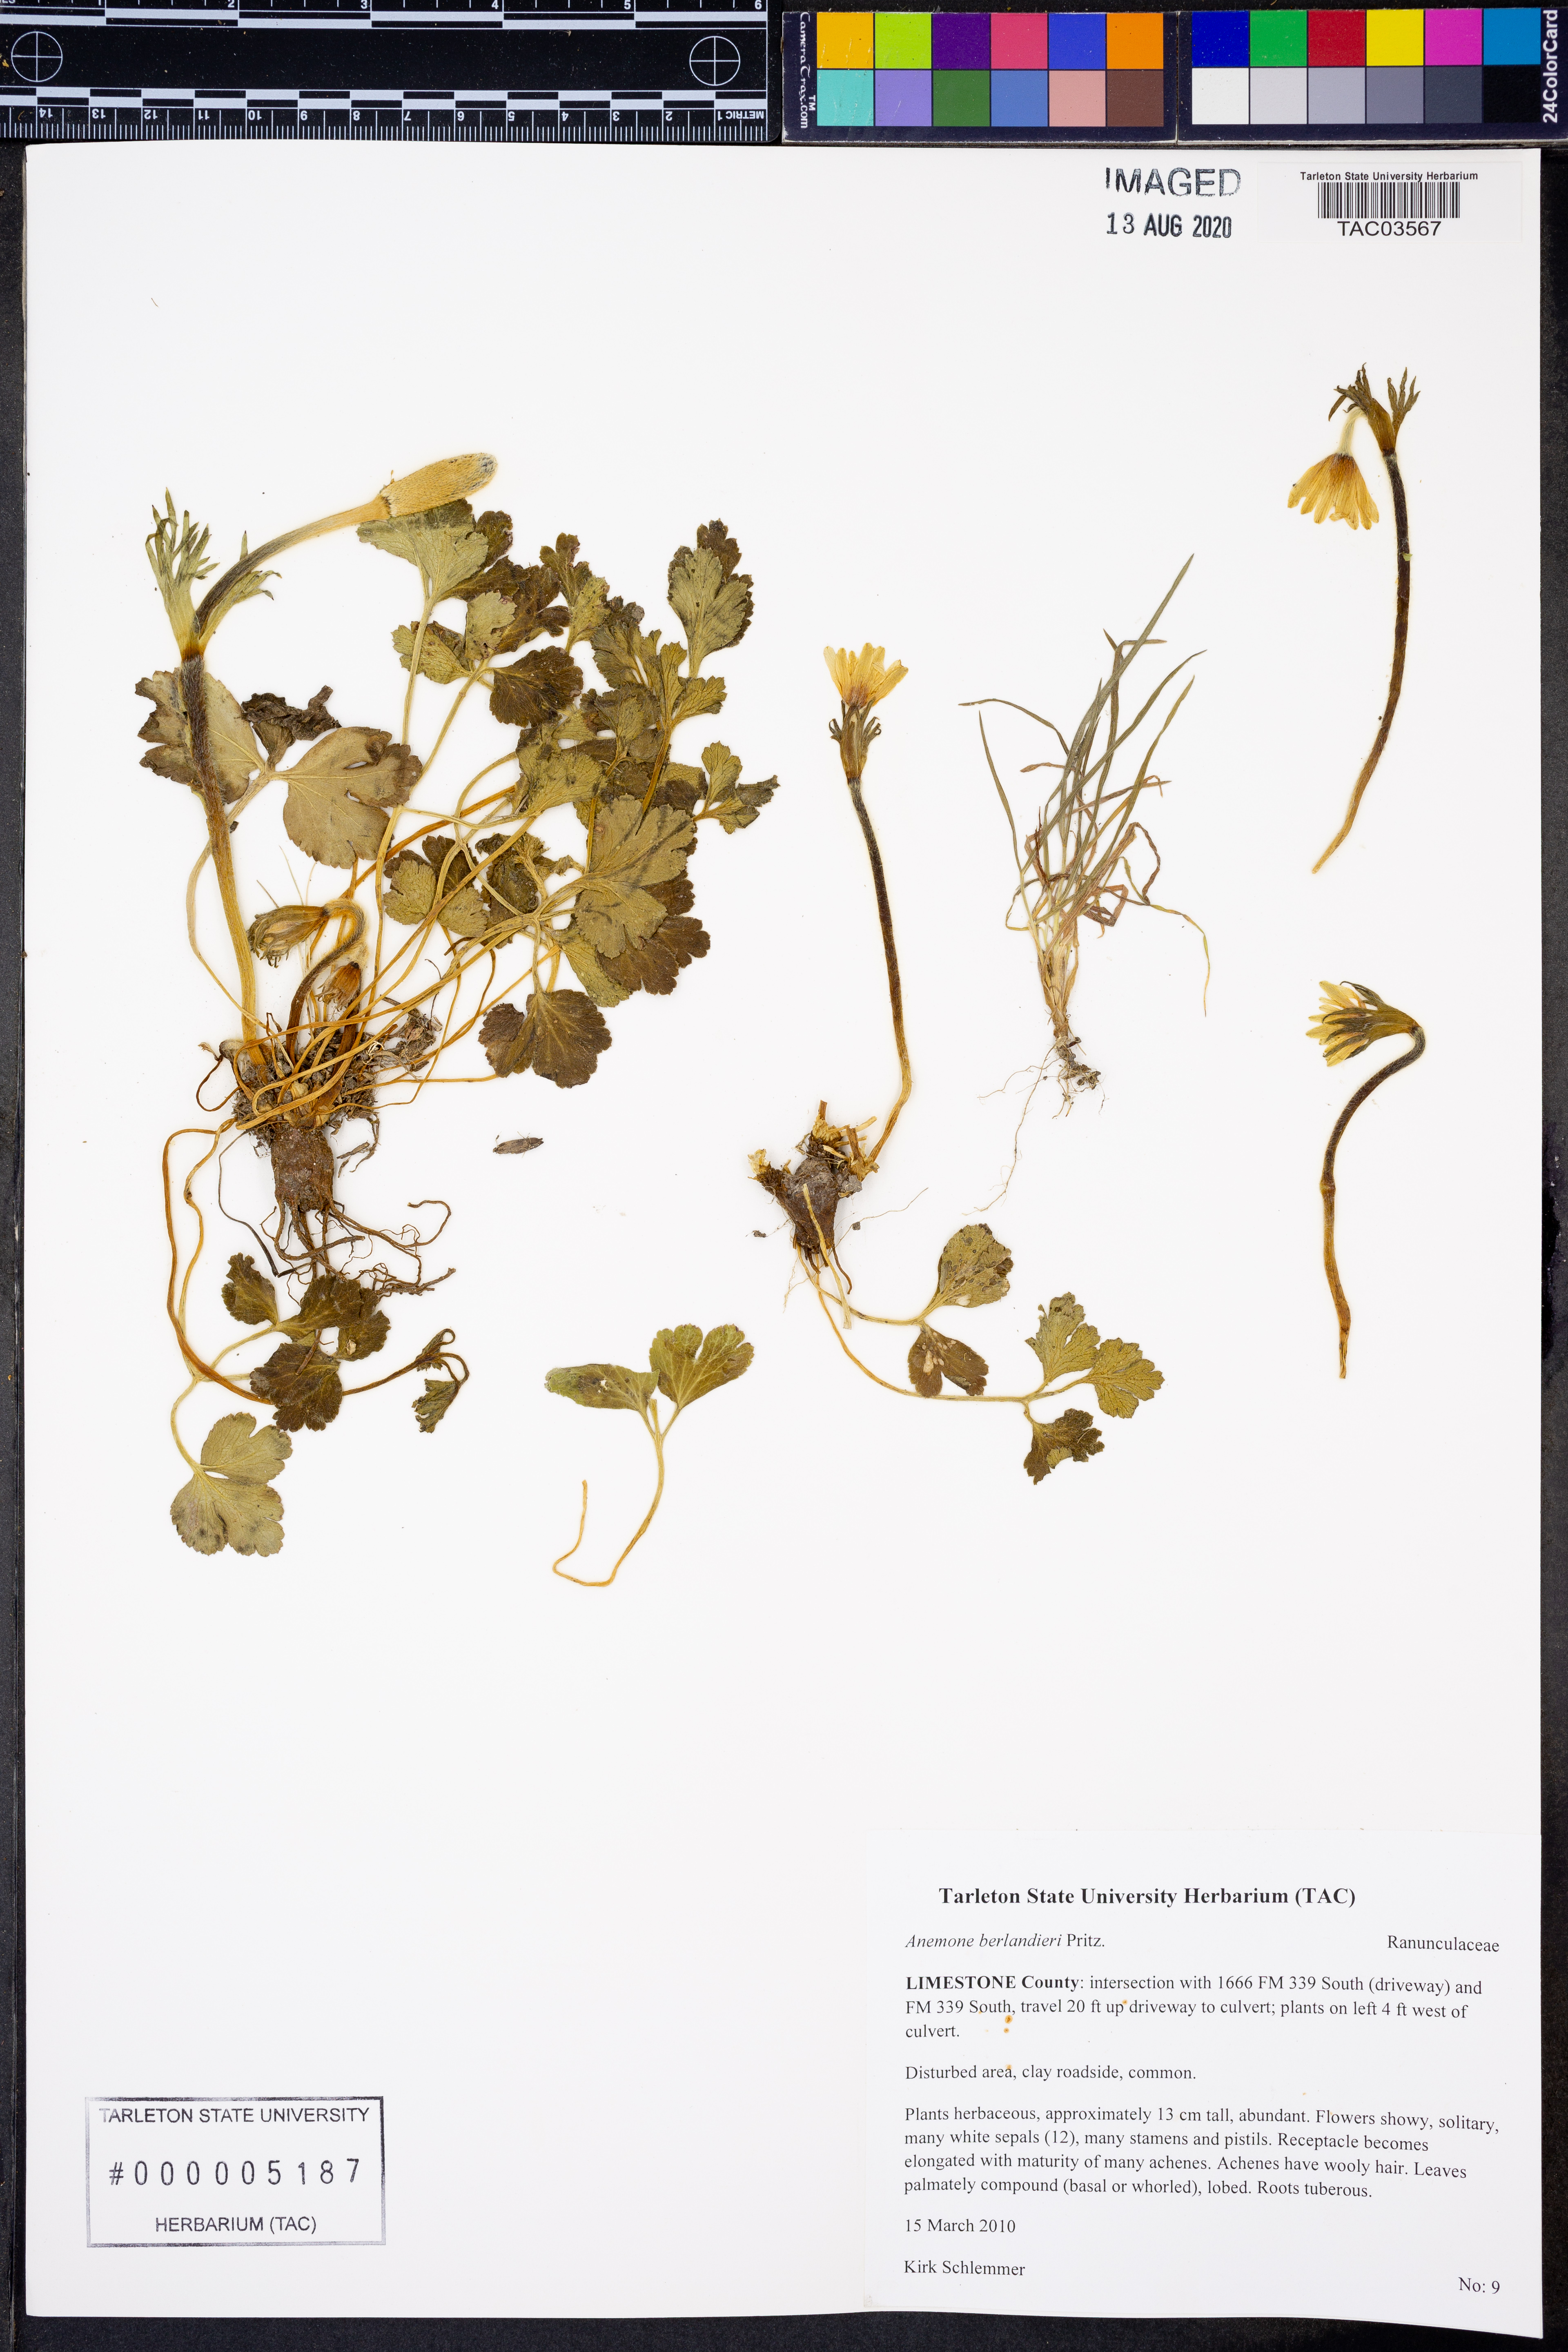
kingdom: Plantae
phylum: Tracheophyta
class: Magnoliopsida
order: Ranunculales
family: Ranunculaceae
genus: Anemone
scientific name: Anemone berlandieri
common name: Ten-petal anemone
